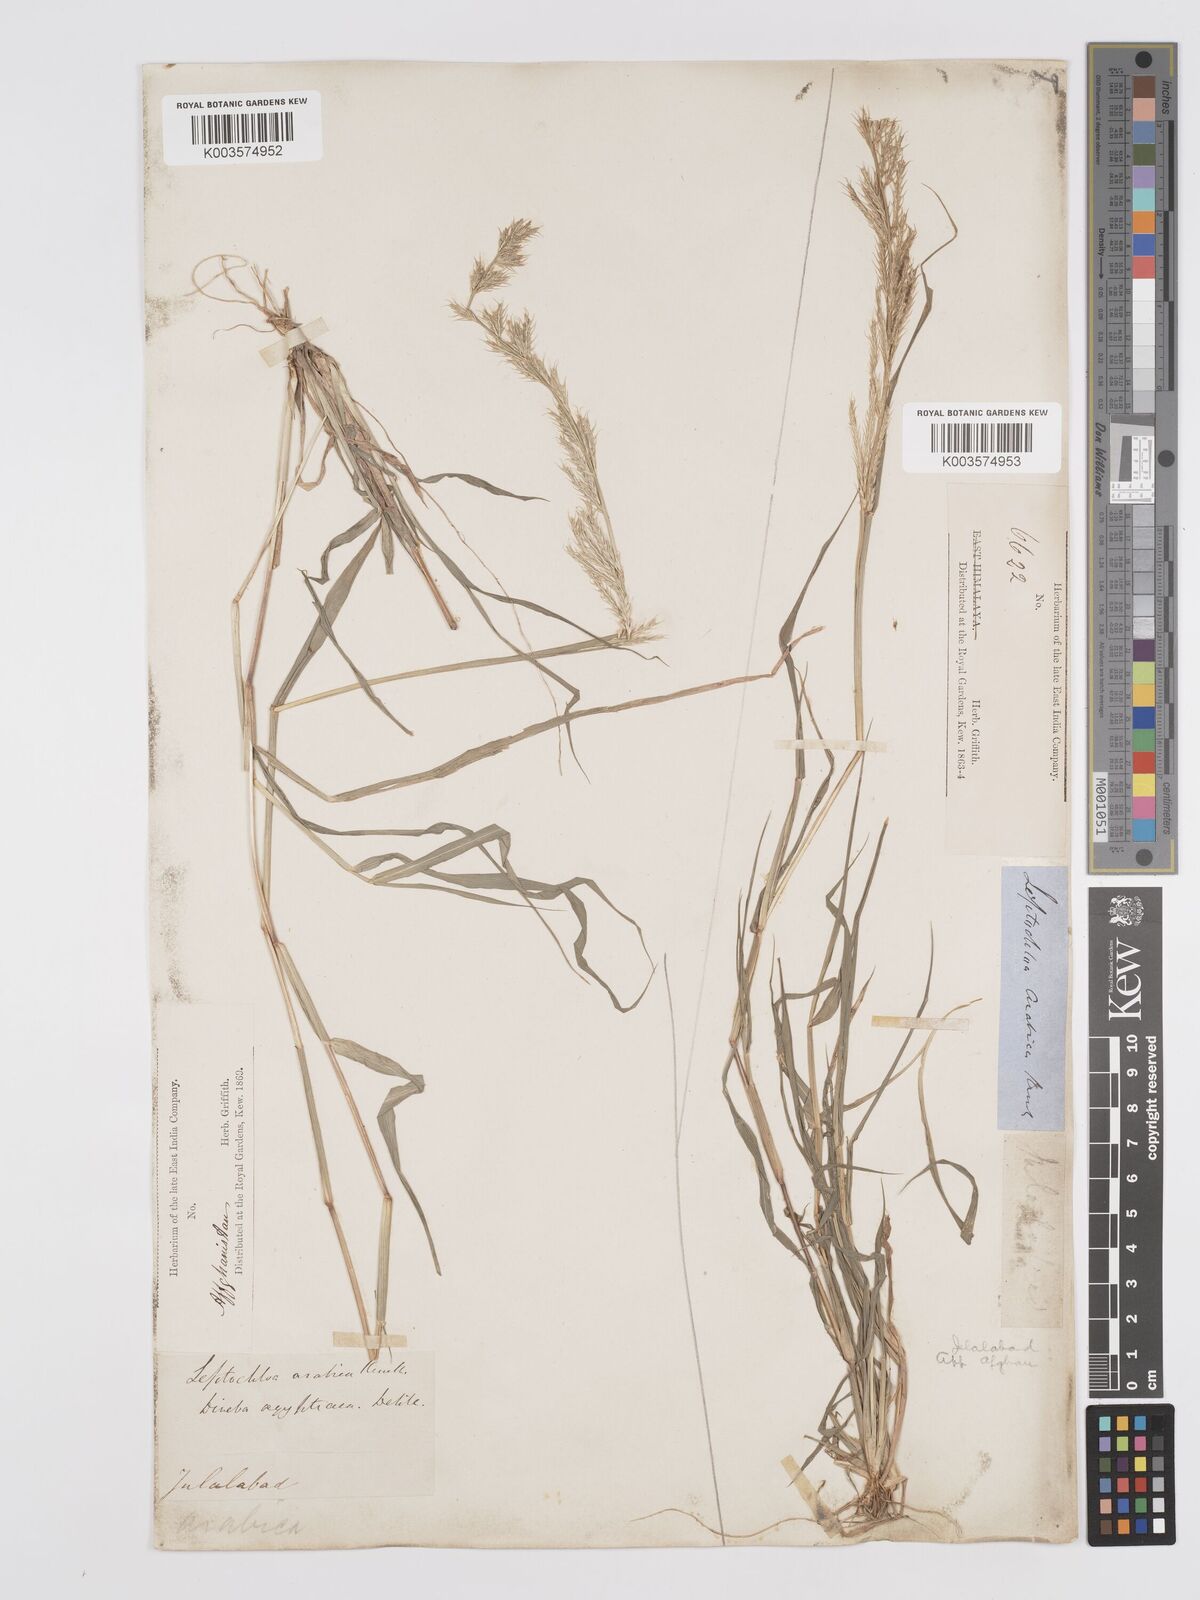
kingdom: Plantae
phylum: Tracheophyta
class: Liliopsida
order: Poales
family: Poaceae
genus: Dinebra
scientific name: Dinebra retroflexa
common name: Viper grass
